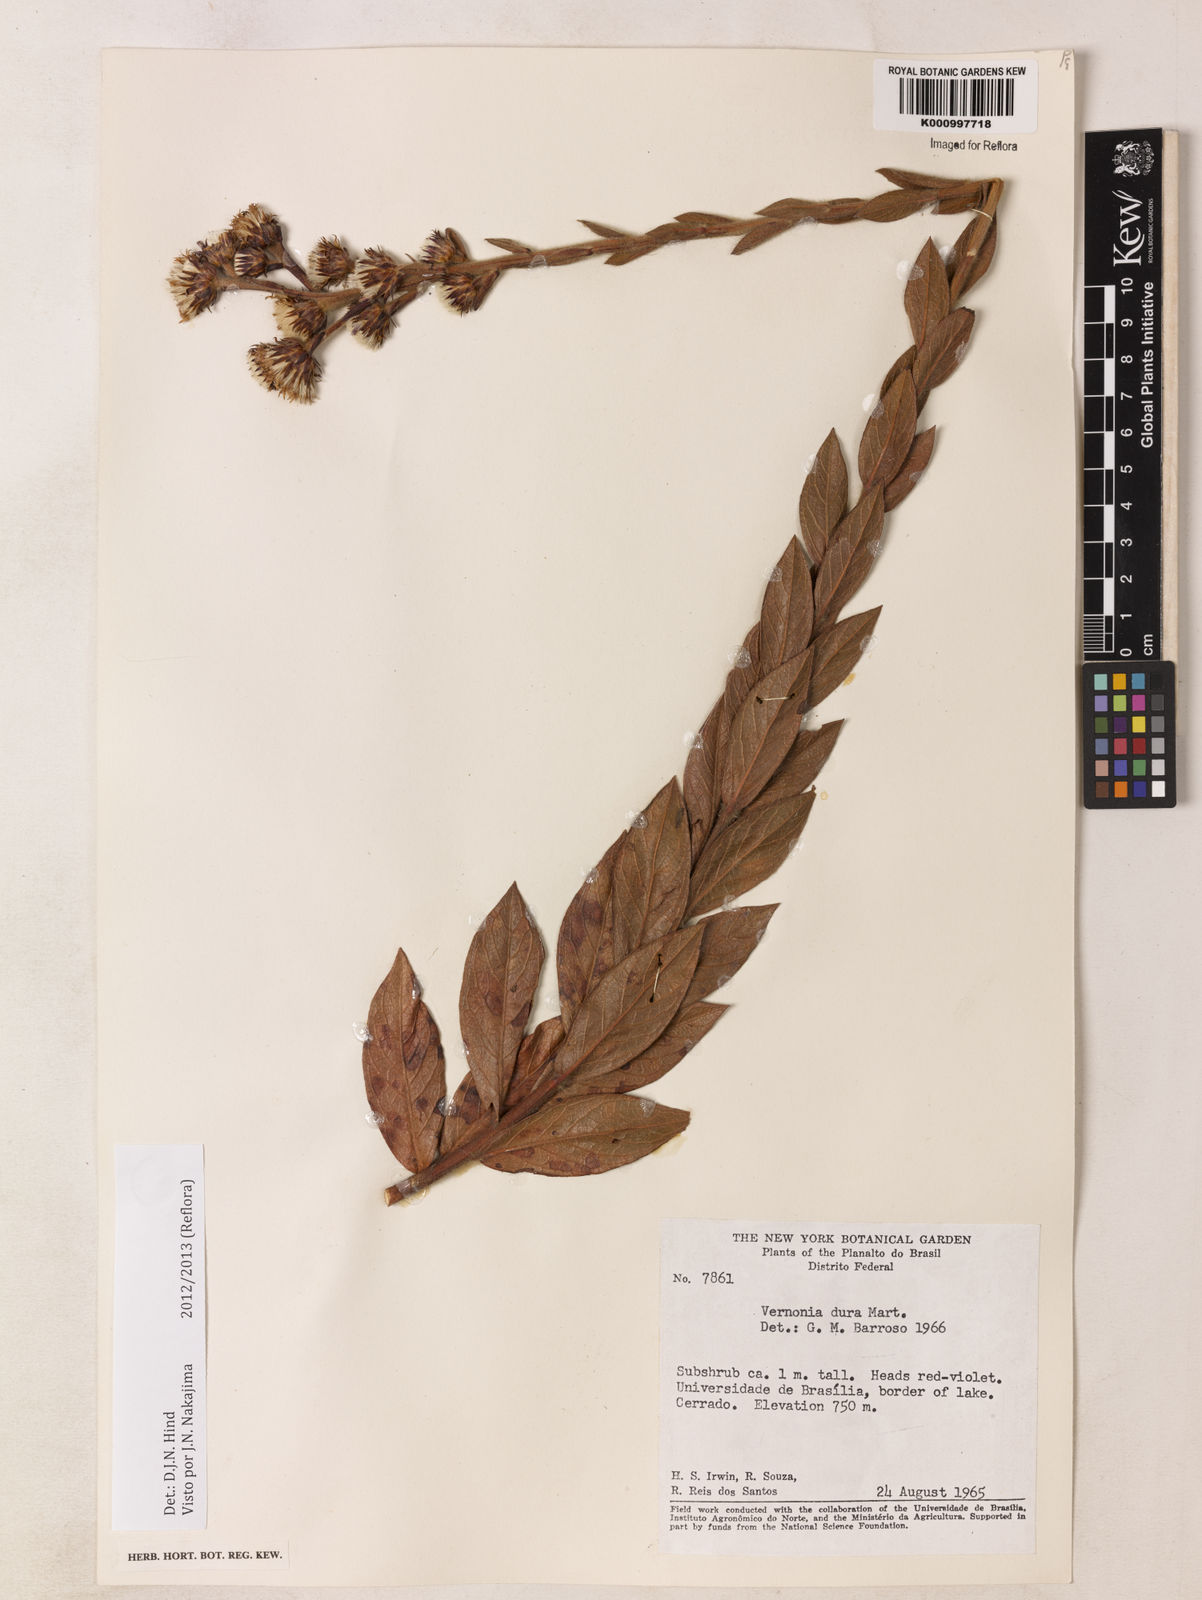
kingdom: Plantae
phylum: Tracheophyta
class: Magnoliopsida
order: Asterales
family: Asteraceae
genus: Lessingianthus
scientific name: Lessingianthus durus
